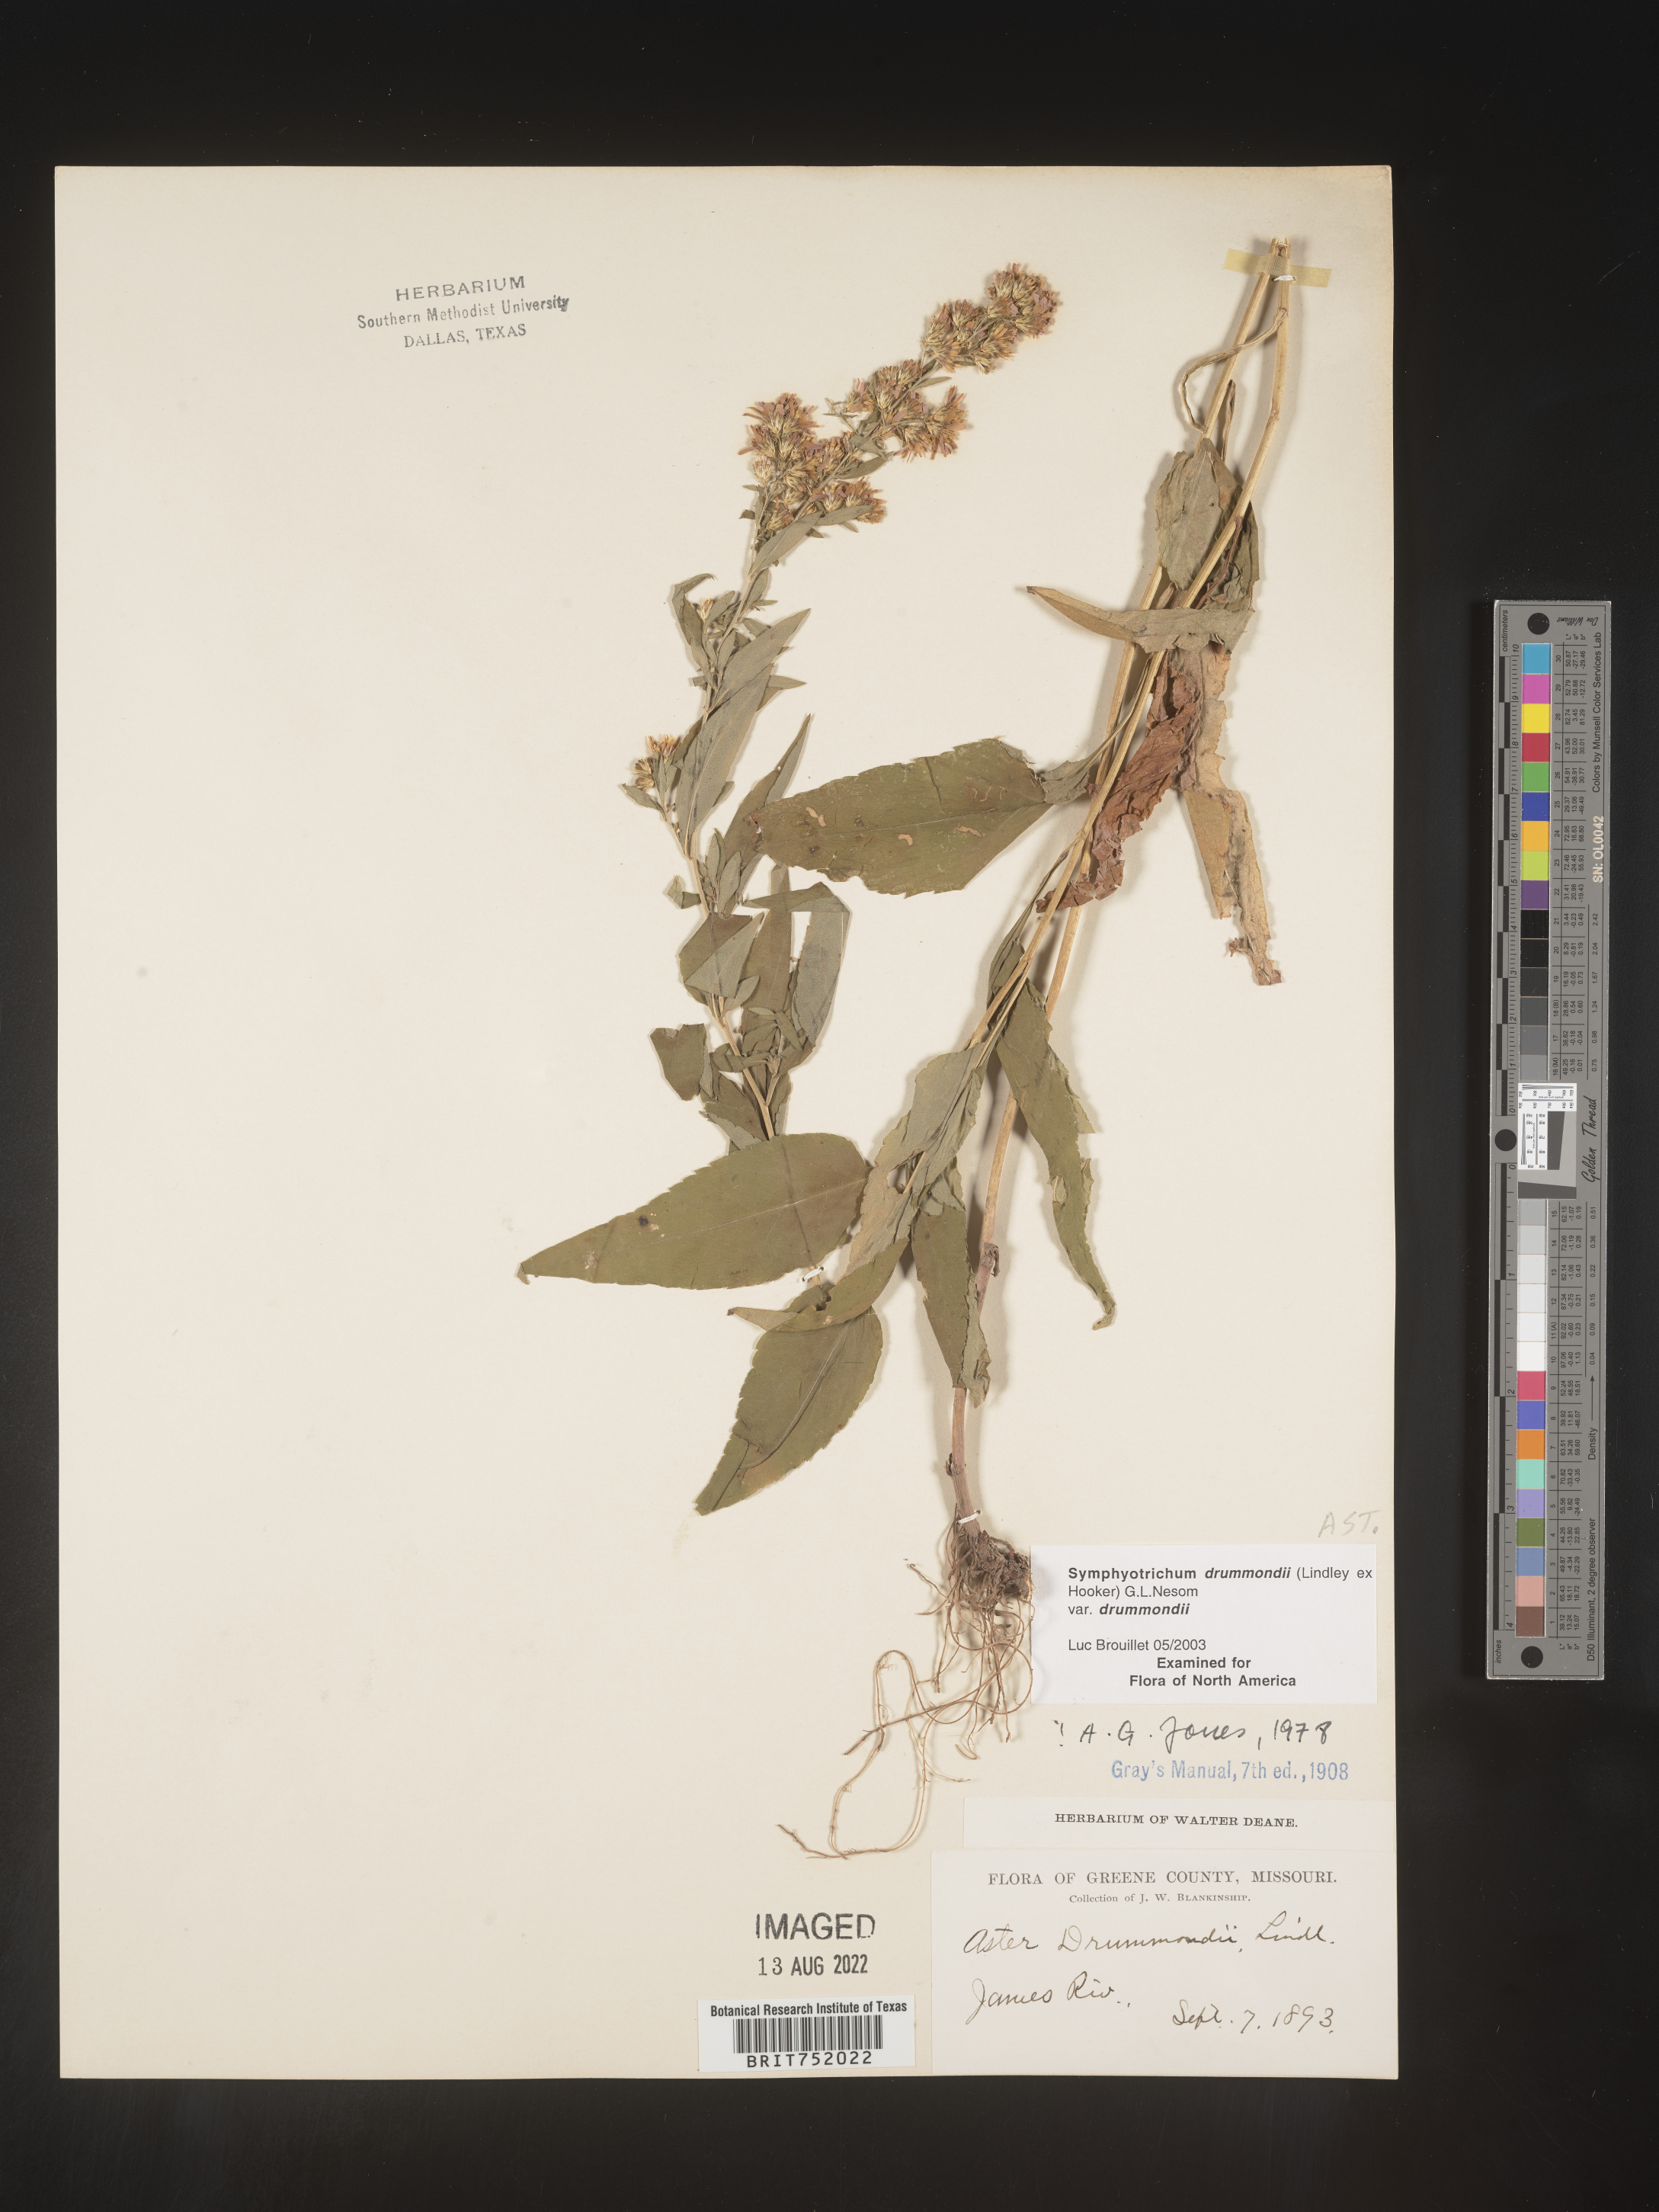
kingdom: Plantae
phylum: Tracheophyta
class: Magnoliopsida
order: Asterales
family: Asteraceae
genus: Symphyotrichum
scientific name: Symphyotrichum drummondii
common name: Drummond's aster
